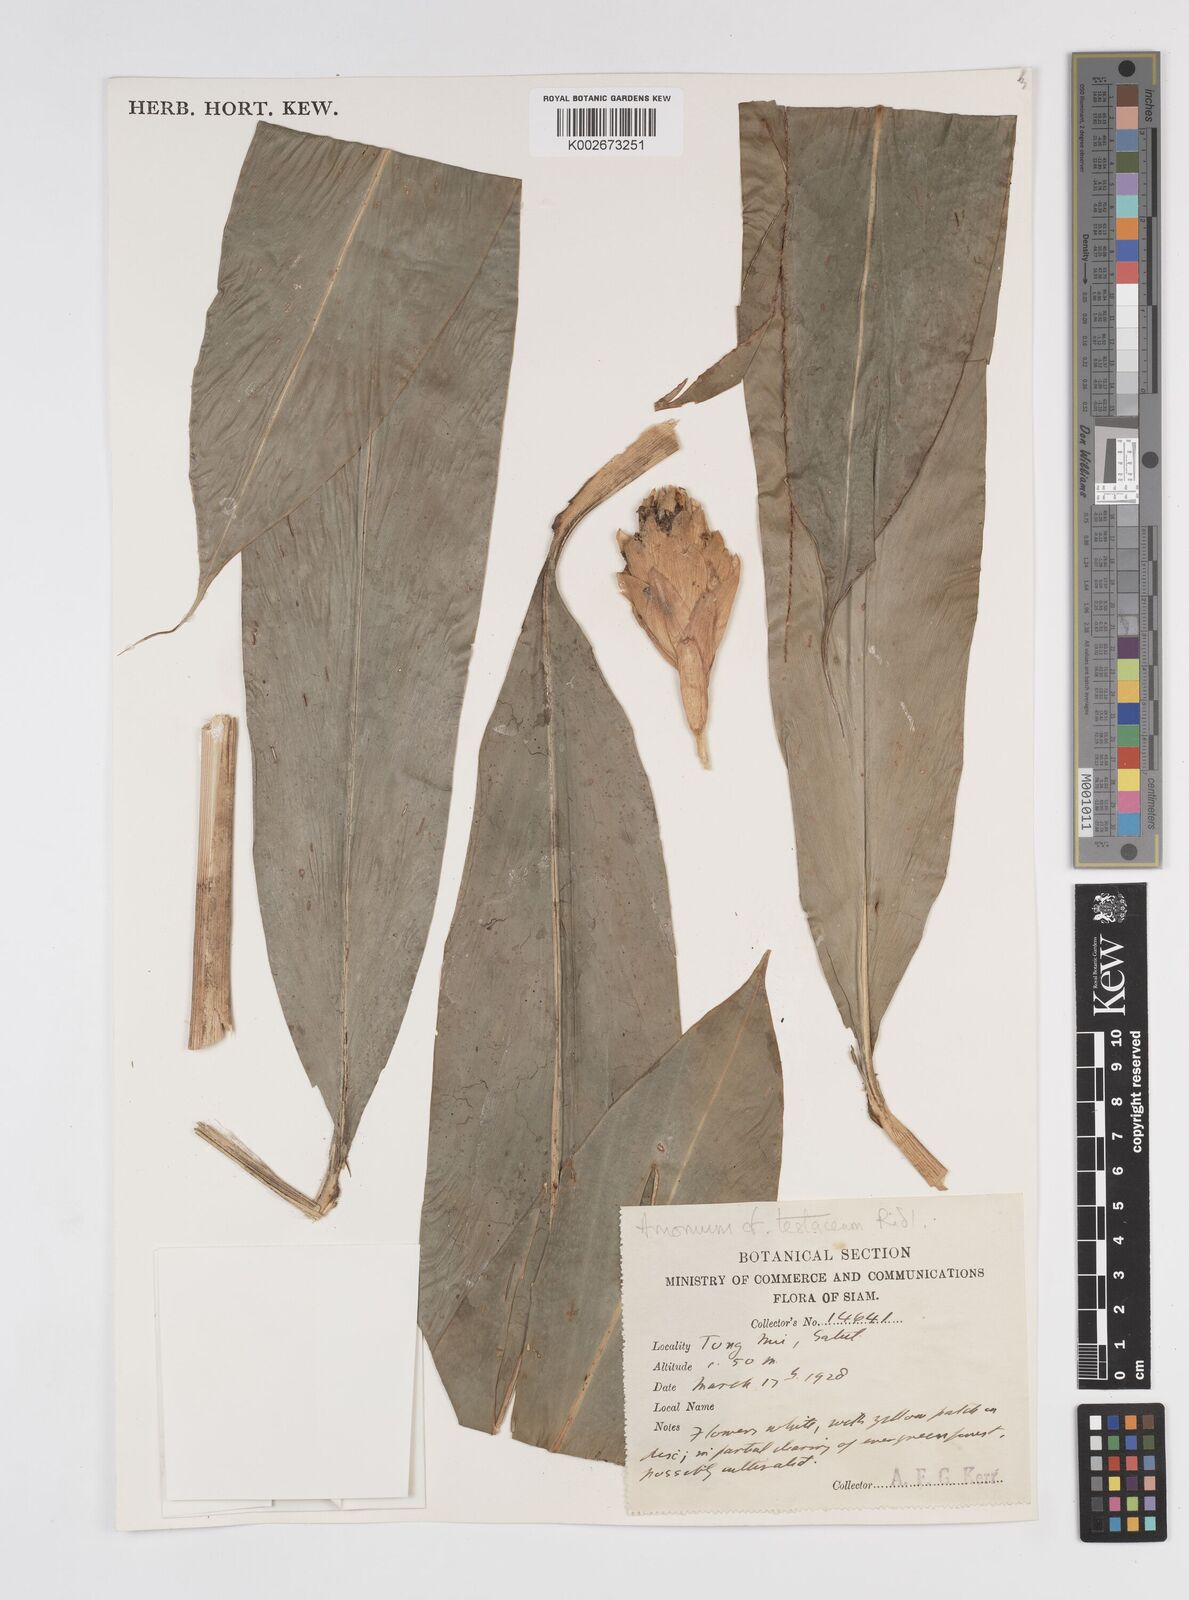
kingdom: Plantae
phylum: Tracheophyta
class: Liliopsida
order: Zingiberales
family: Zingiberaceae
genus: Wurfbainia
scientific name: Wurfbainia testacea
